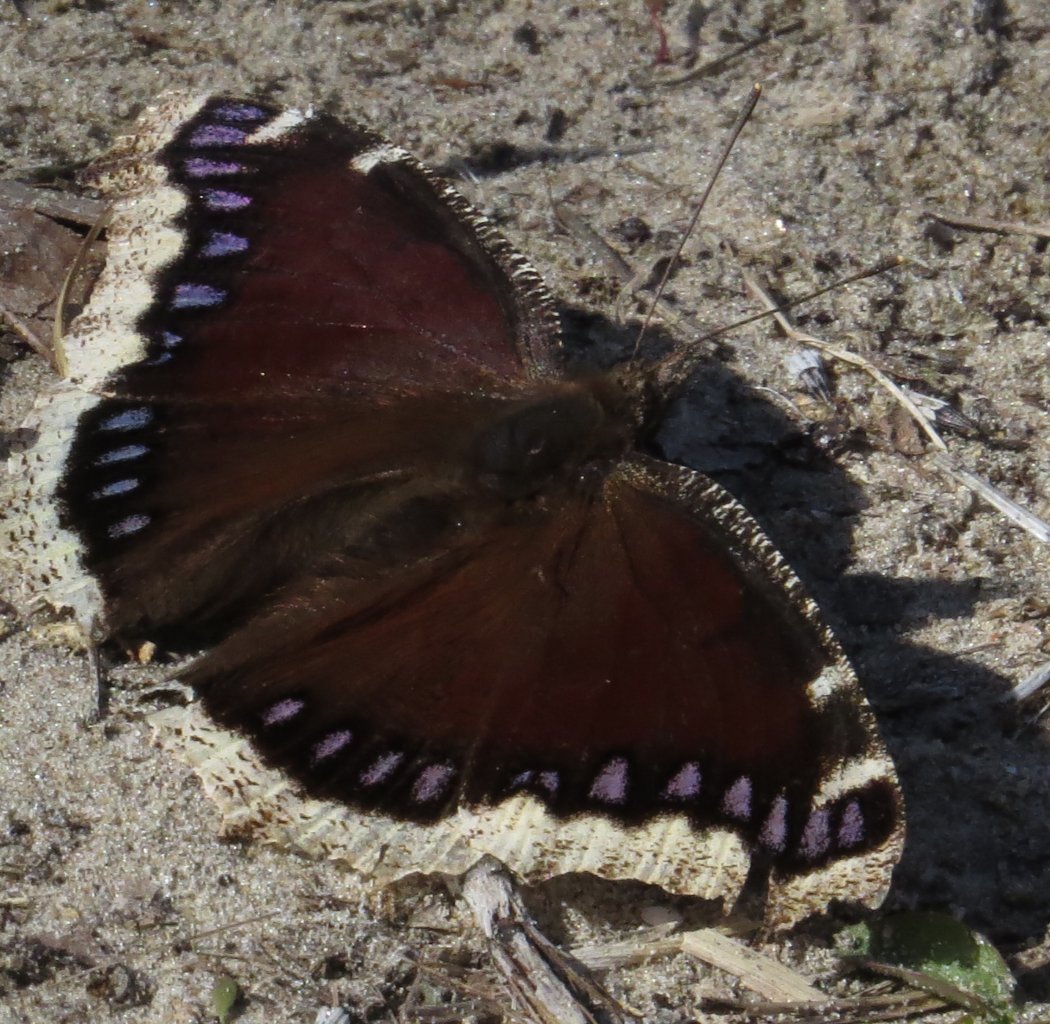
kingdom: Animalia
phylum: Arthropoda
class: Insecta
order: Lepidoptera
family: Nymphalidae
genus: Nymphalis
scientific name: Nymphalis antiopa
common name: Mourning Cloak
